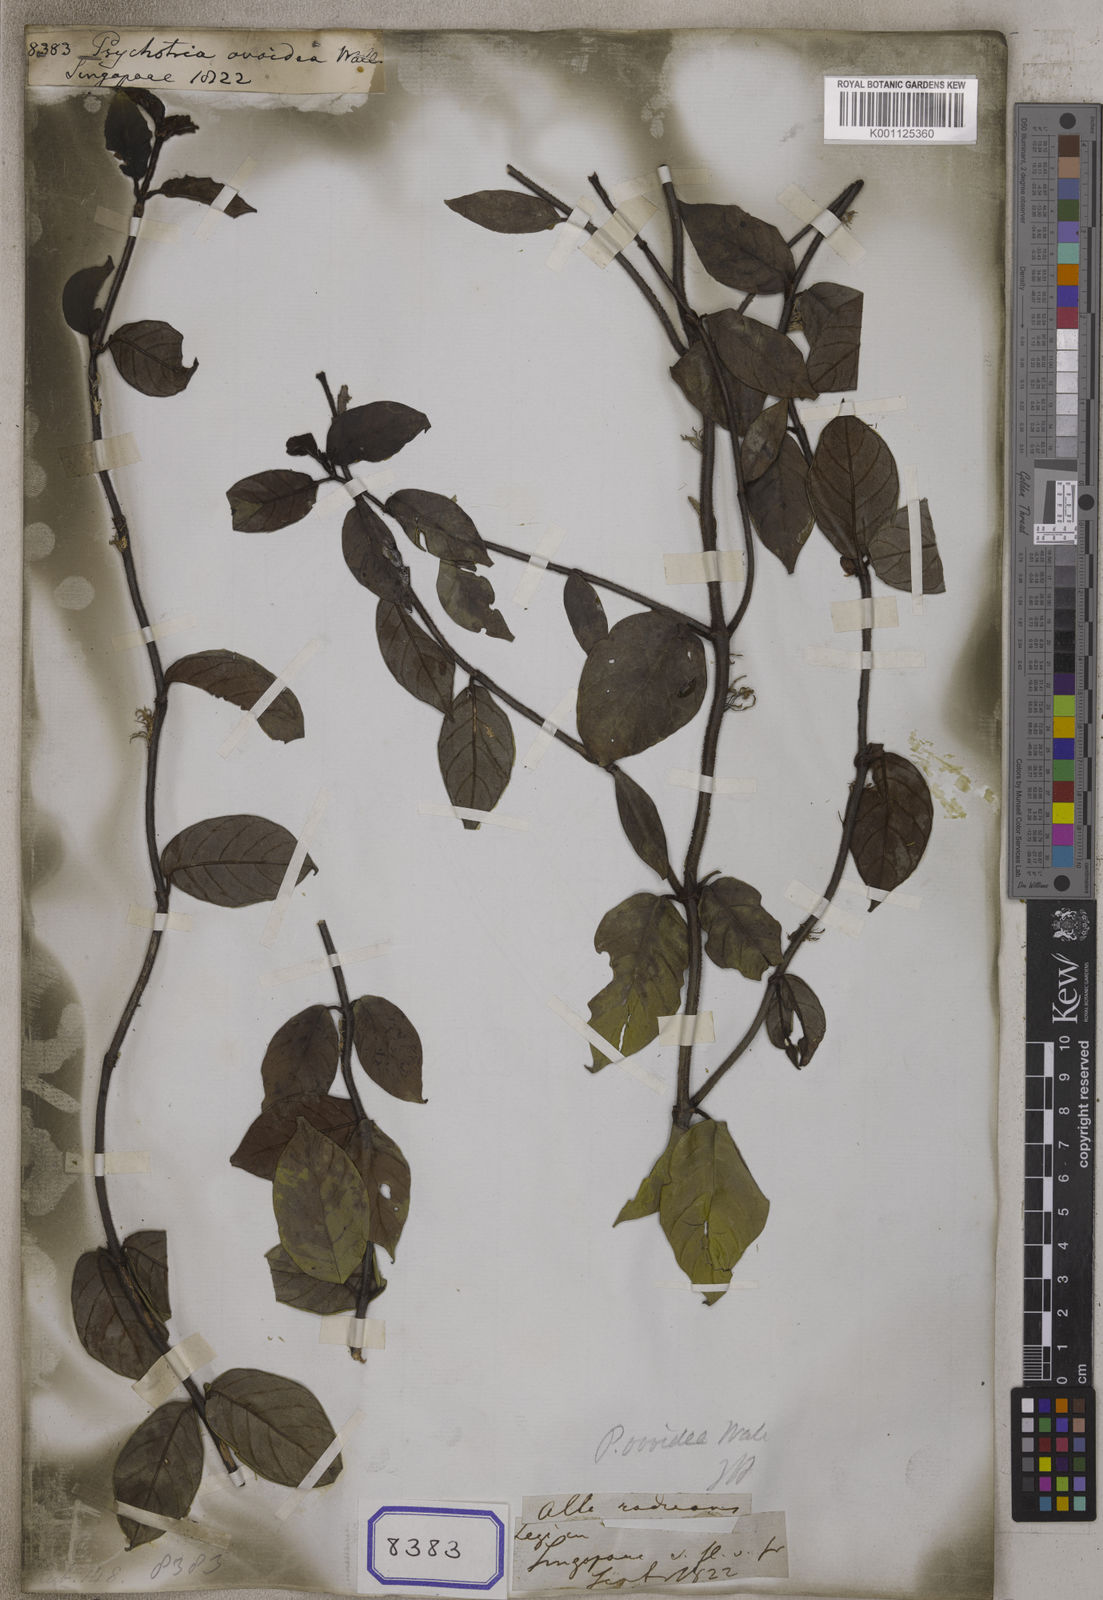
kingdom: Plantae
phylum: Tracheophyta
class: Magnoliopsida
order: Gentianales
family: Rubiaceae
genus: Psychotria
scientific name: Psychotria
